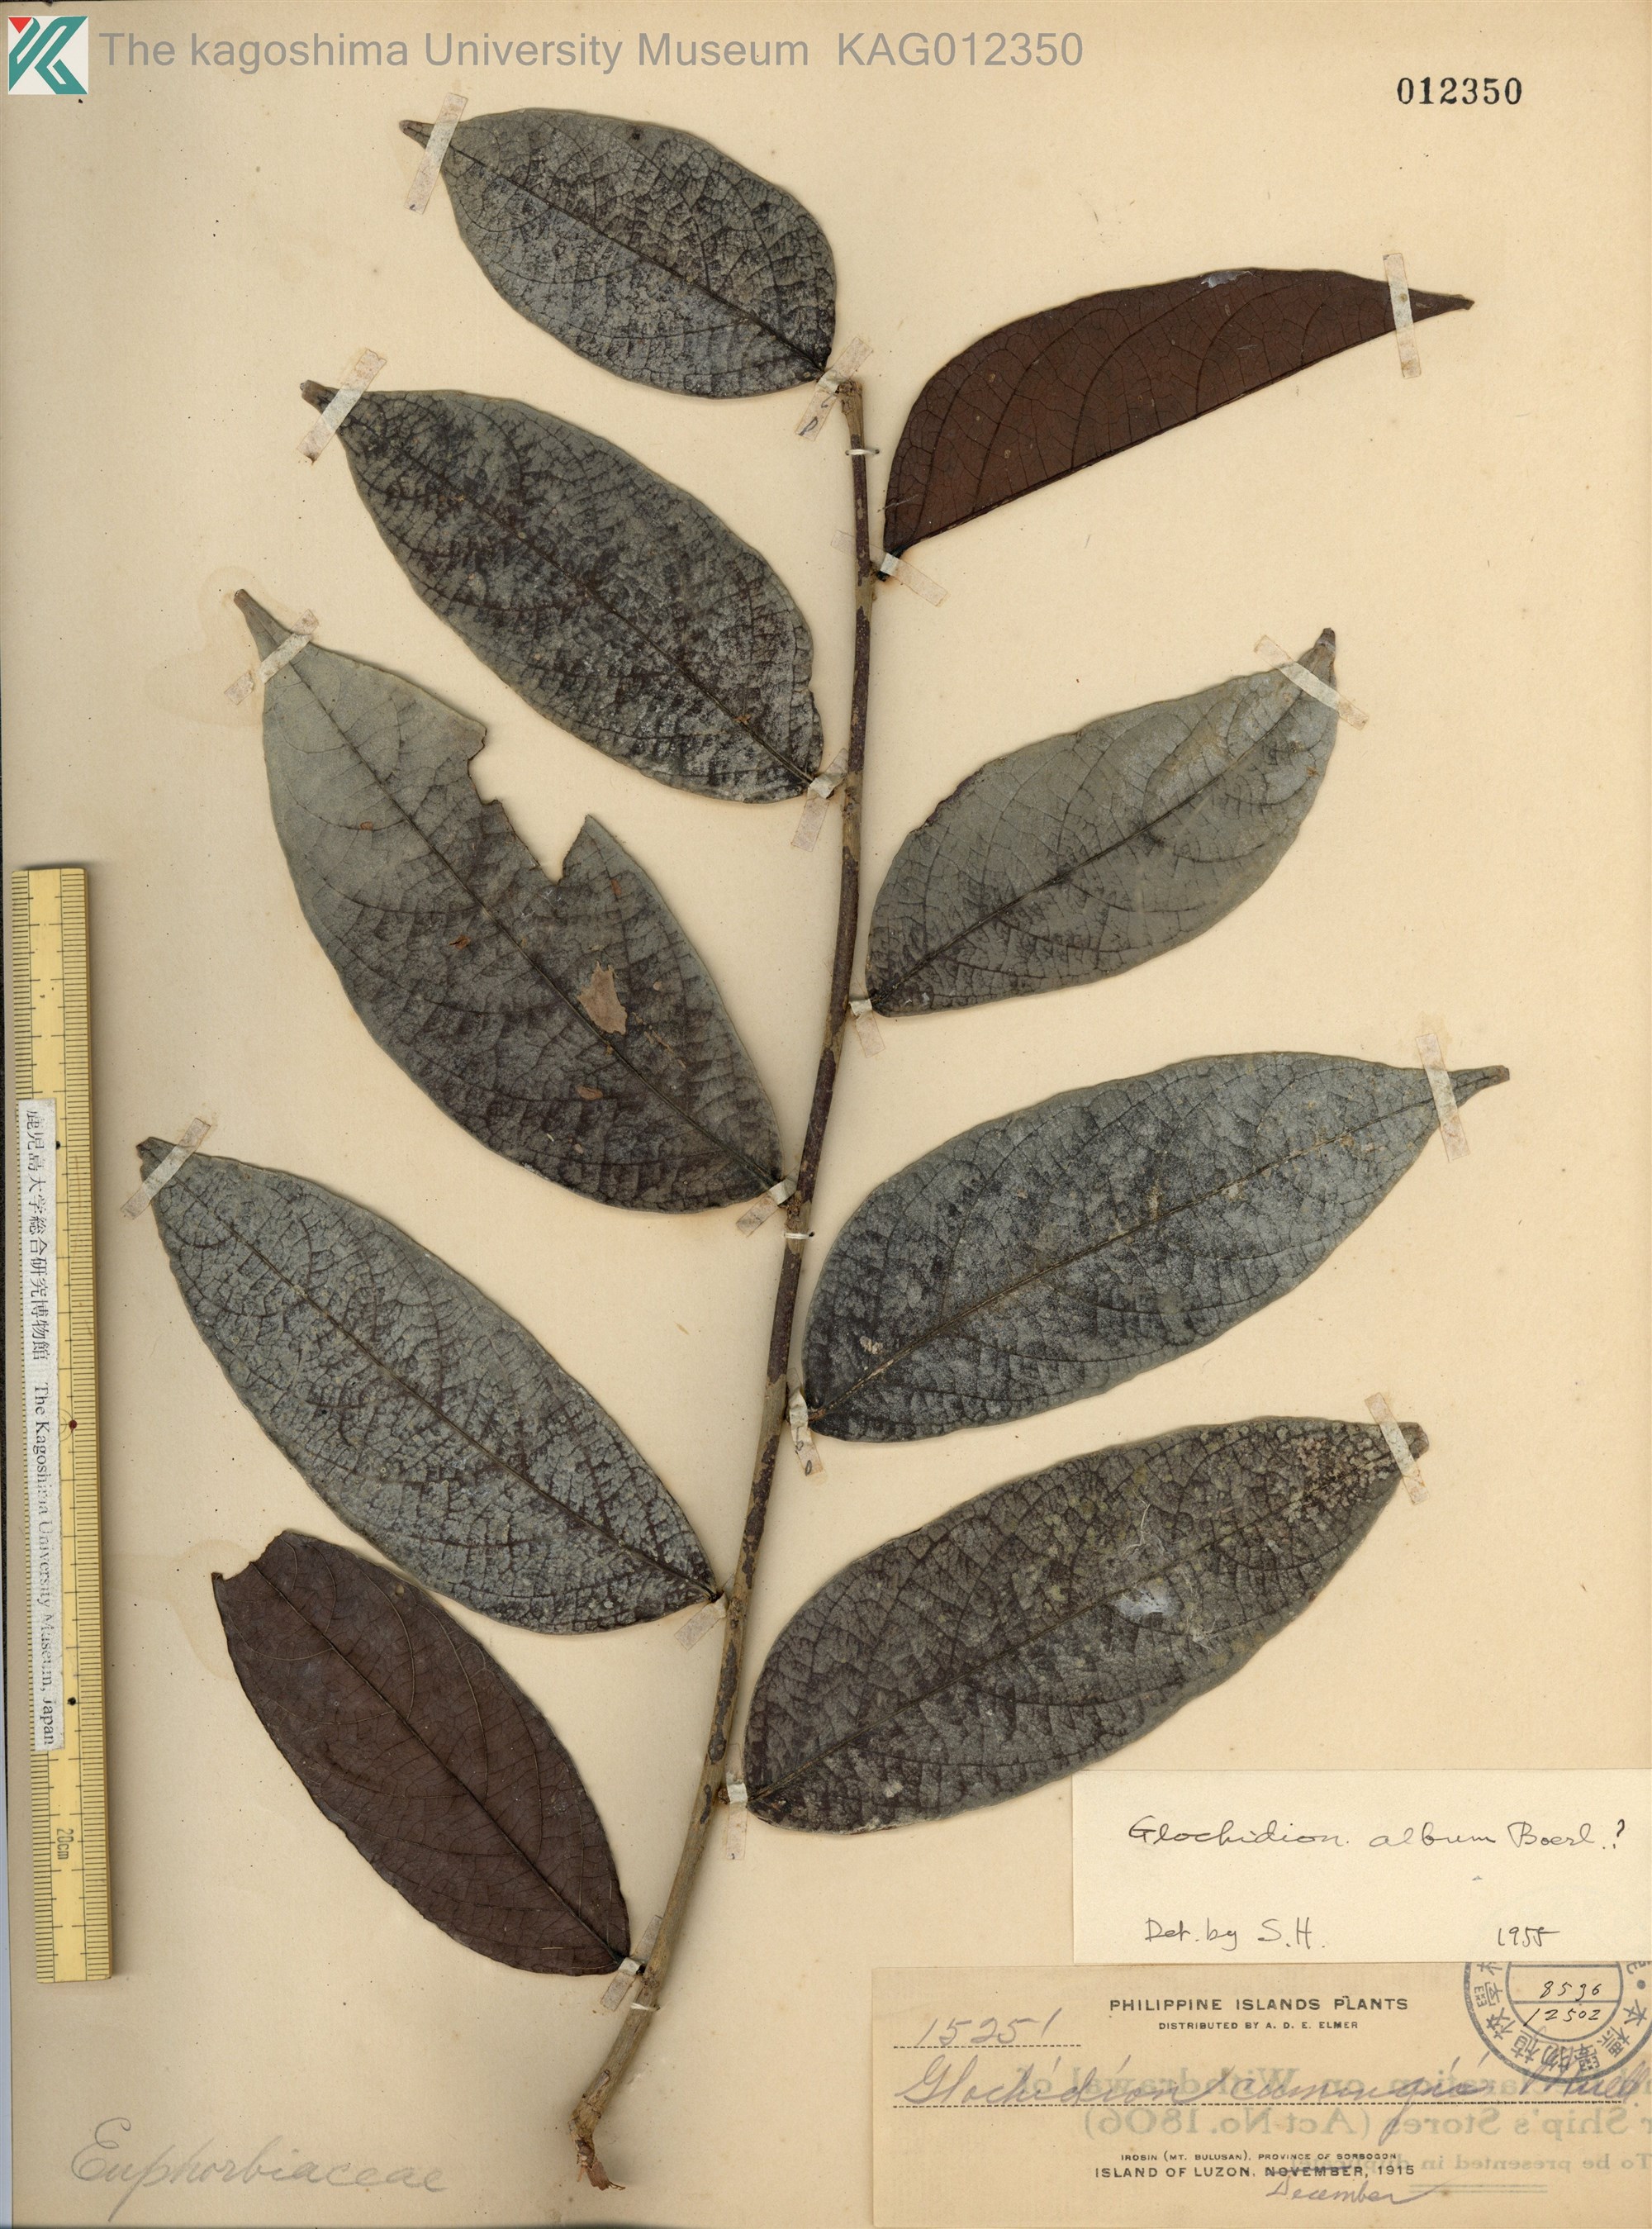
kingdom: Plantae
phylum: Tracheophyta
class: Magnoliopsida
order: Malpighiales
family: Phyllanthaceae
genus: Glochidion
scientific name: Glochidion subfalcatum
